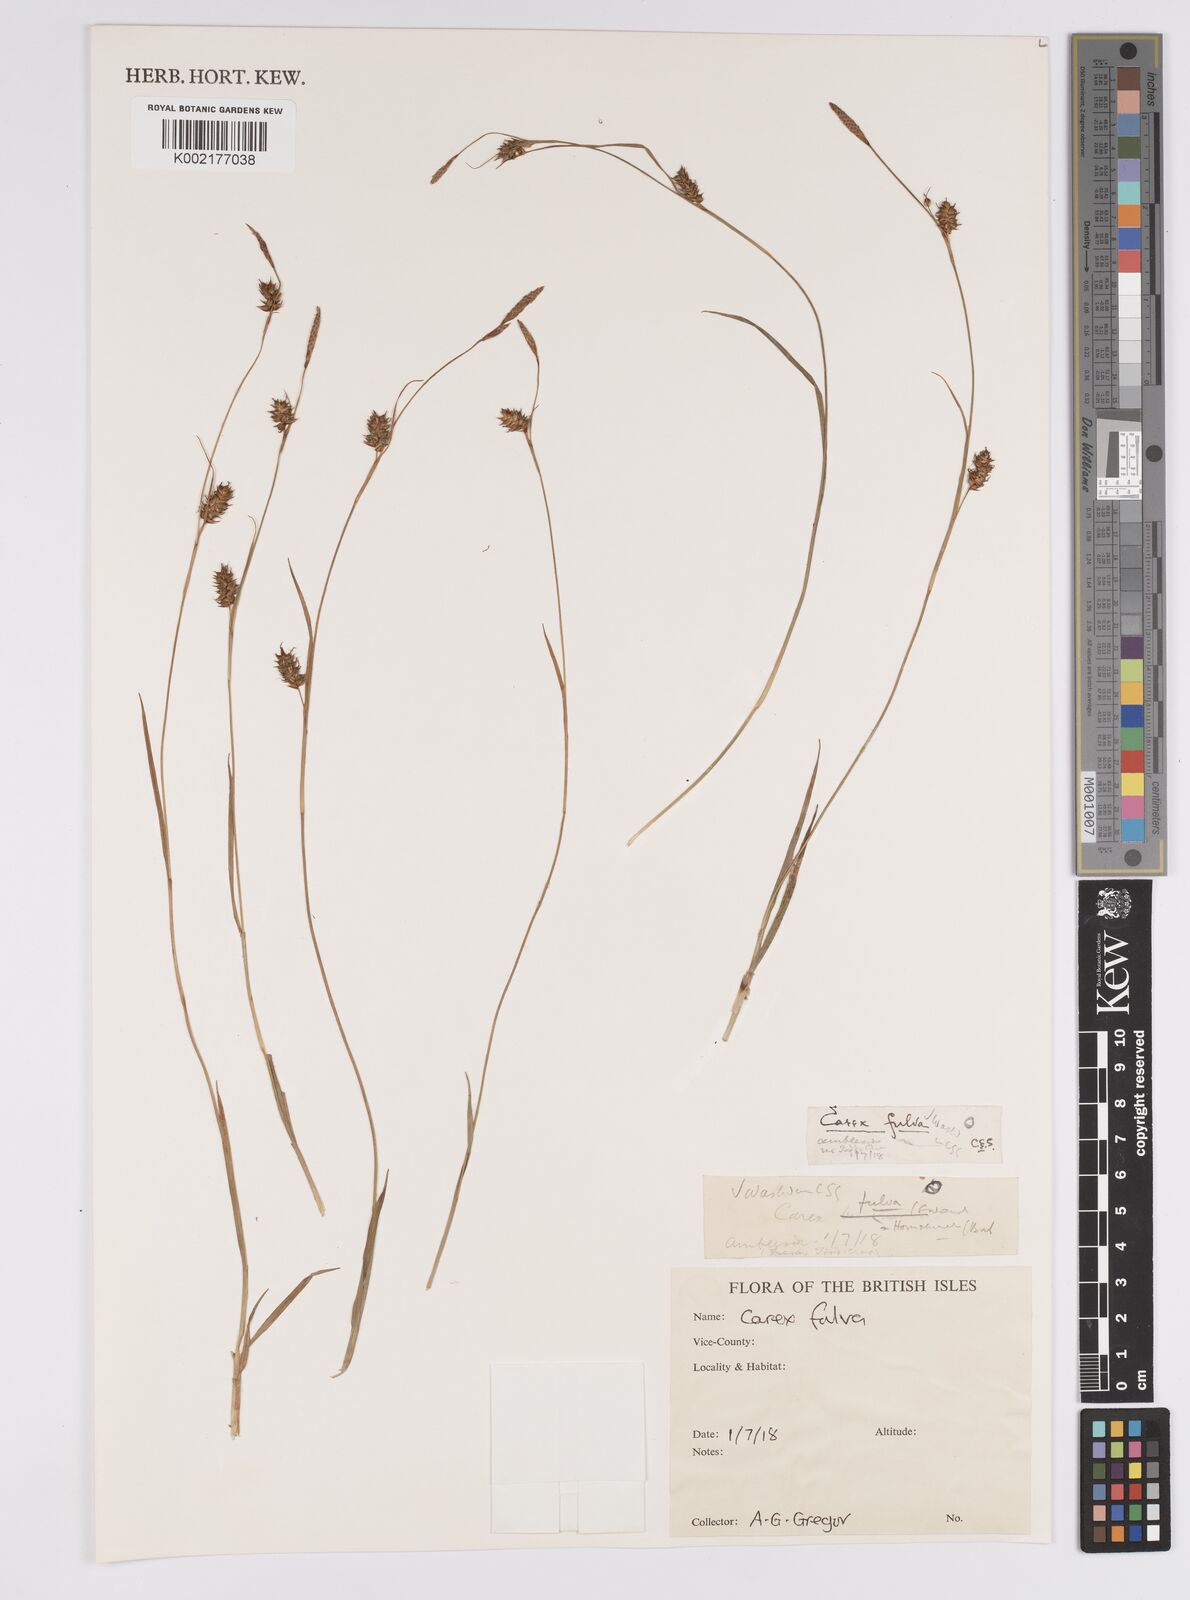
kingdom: Plantae
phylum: Tracheophyta
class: Liliopsida
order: Poales
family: Cyperaceae
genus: Carex
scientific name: Carex hostiana
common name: Tawny sedge
